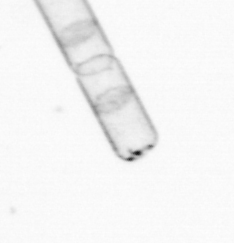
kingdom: Chromista
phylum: Ochrophyta
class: Bacillariophyceae
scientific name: Bacillariophyceae
